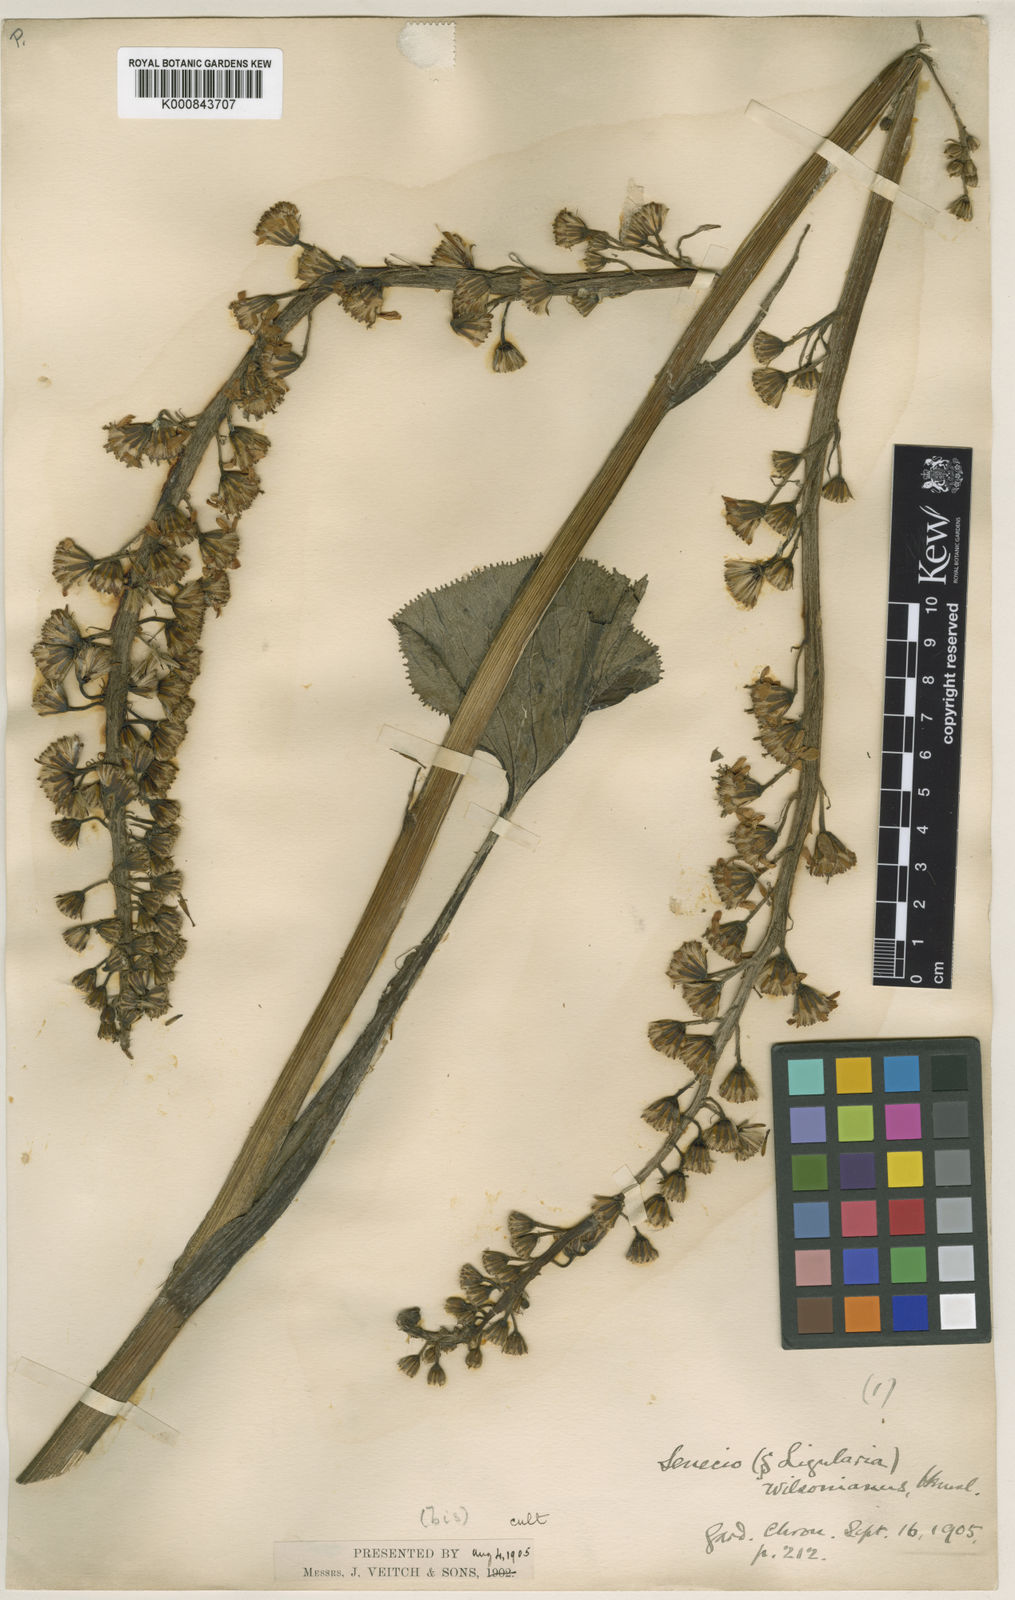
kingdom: Plantae
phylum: Tracheophyta
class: Magnoliopsida
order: Asterales
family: Asteraceae
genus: Ligularia
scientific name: Ligularia wilsoniana
